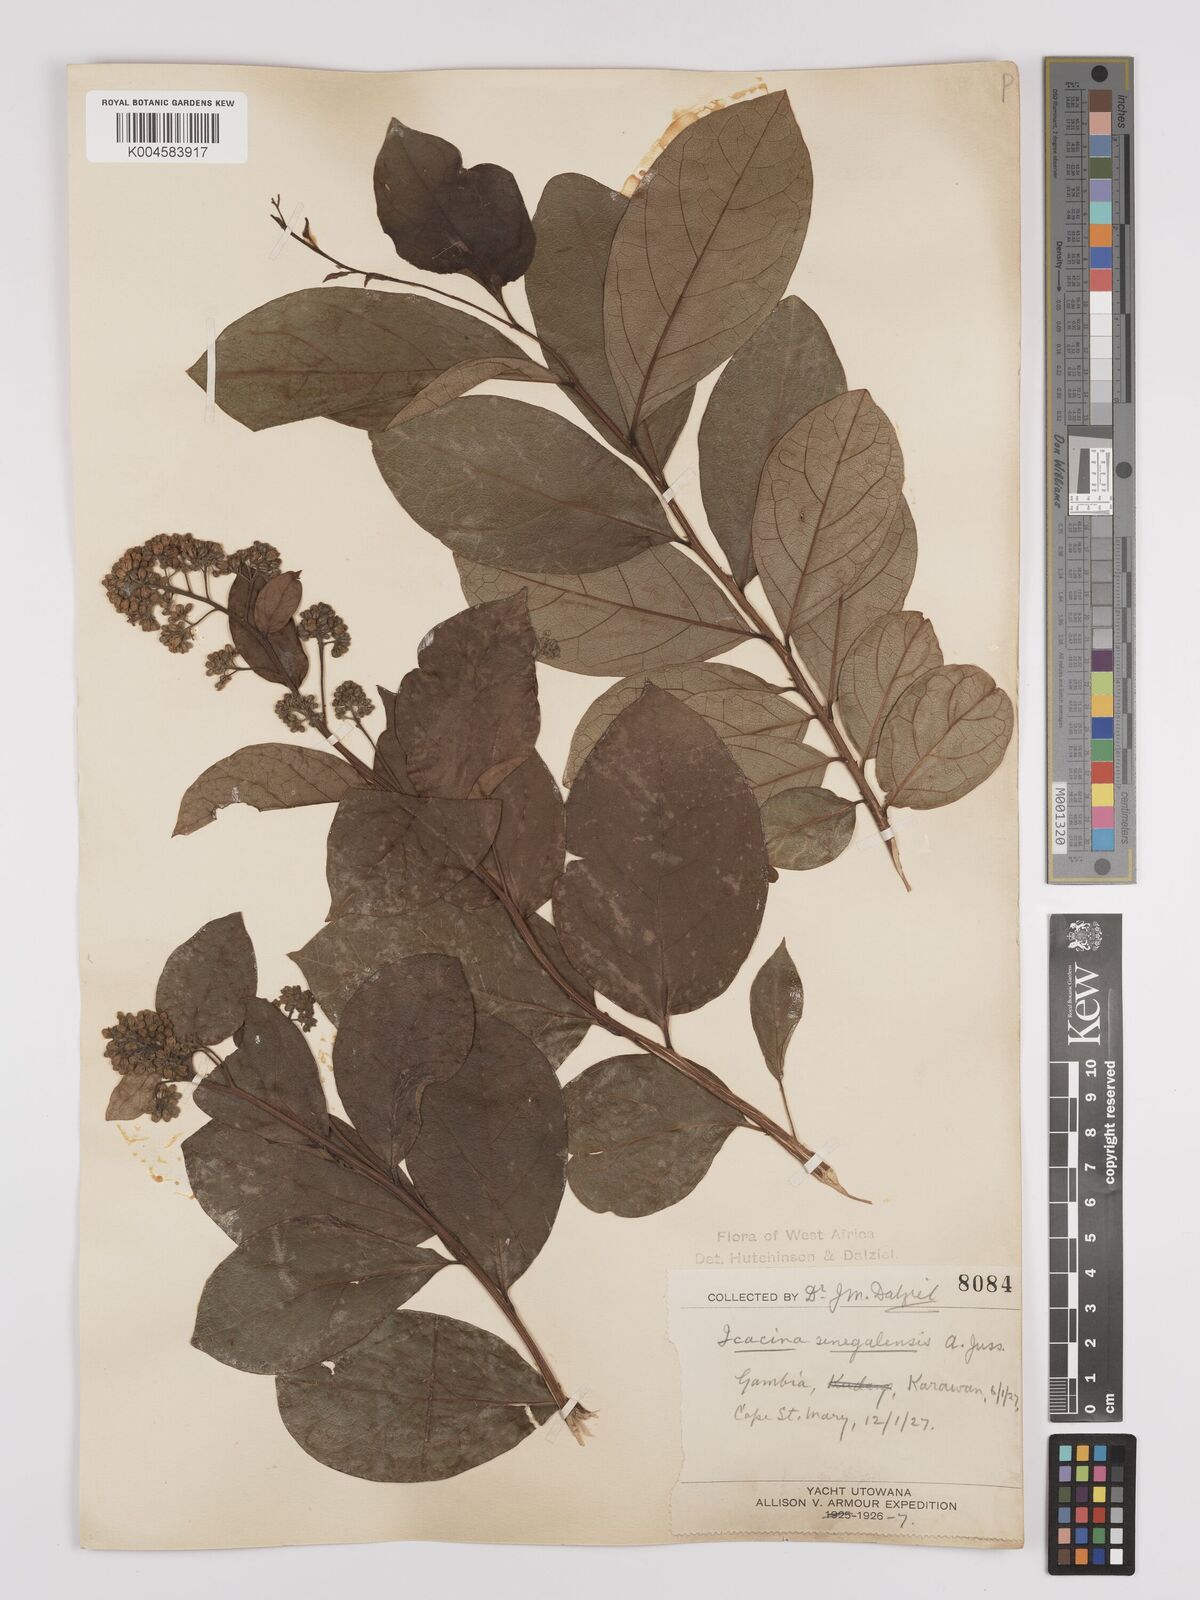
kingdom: Plantae
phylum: Tracheophyta
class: Magnoliopsida
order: Icacinales
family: Icacinaceae
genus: Icacina
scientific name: Icacina oliviformis
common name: False yam
